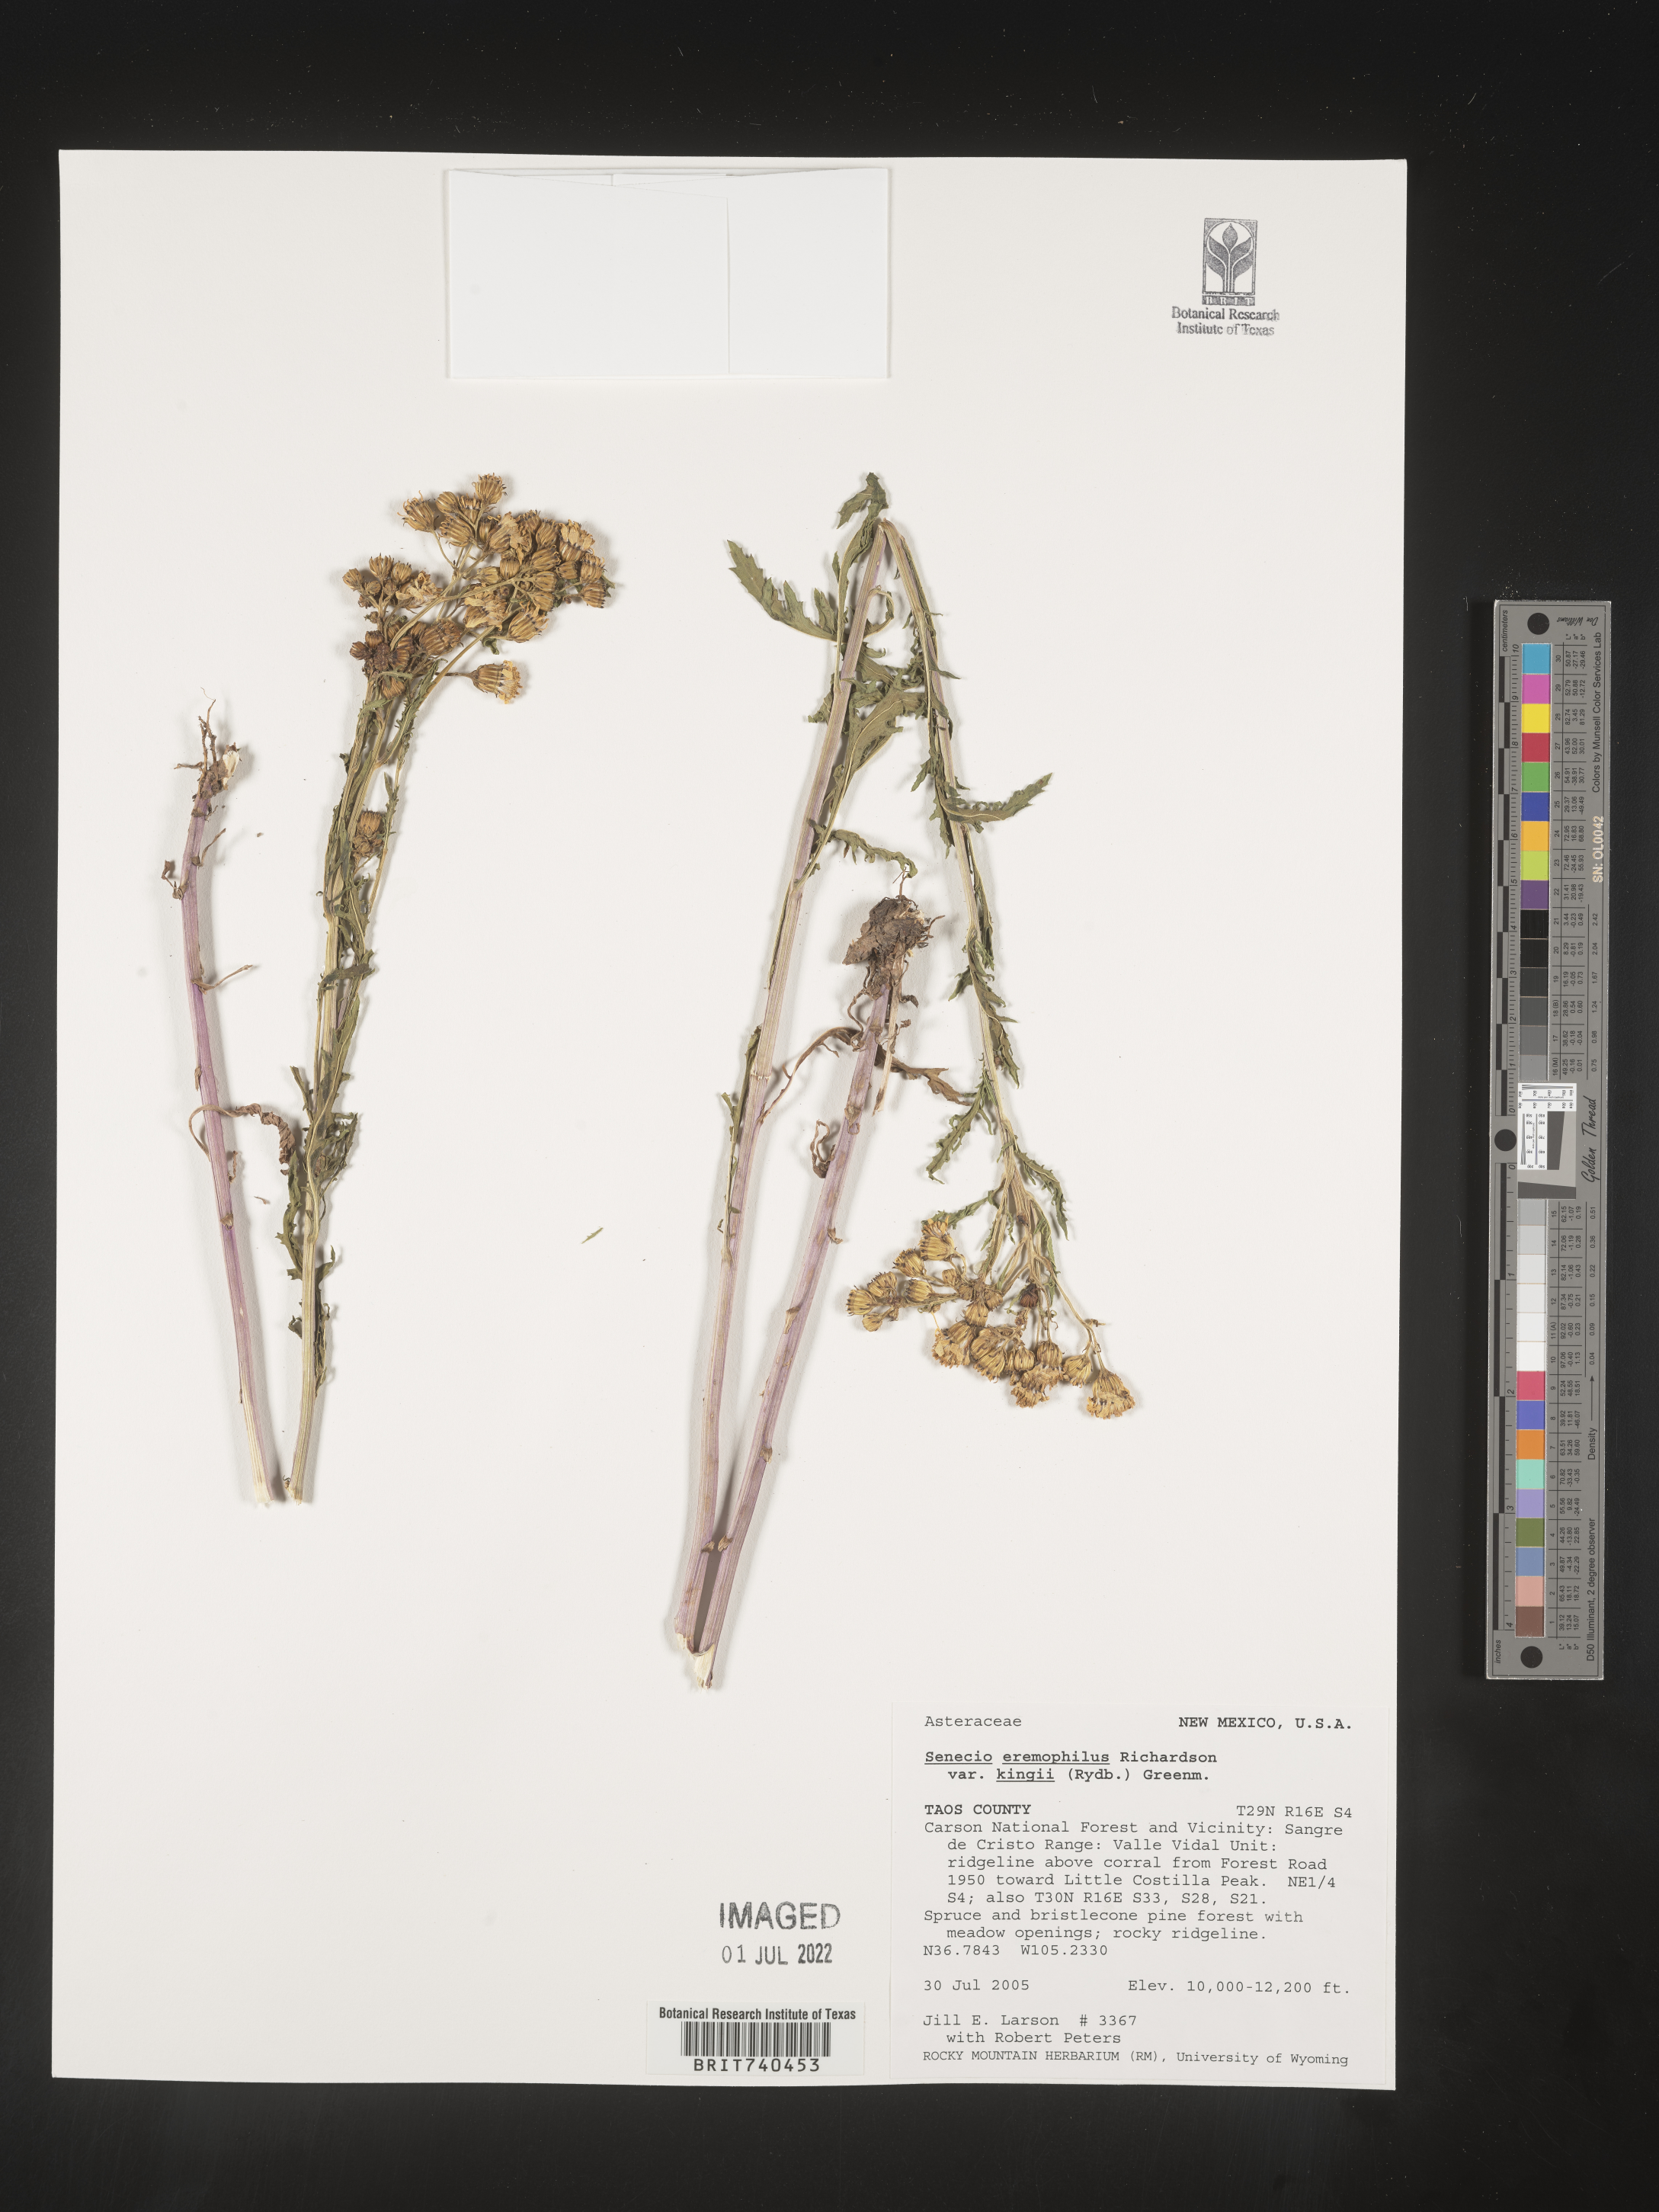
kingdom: Plantae
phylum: Tracheophyta
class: Magnoliopsida
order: Asterales
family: Asteraceae
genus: Senecio
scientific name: Senecio eremophilus
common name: Desert ragwort
